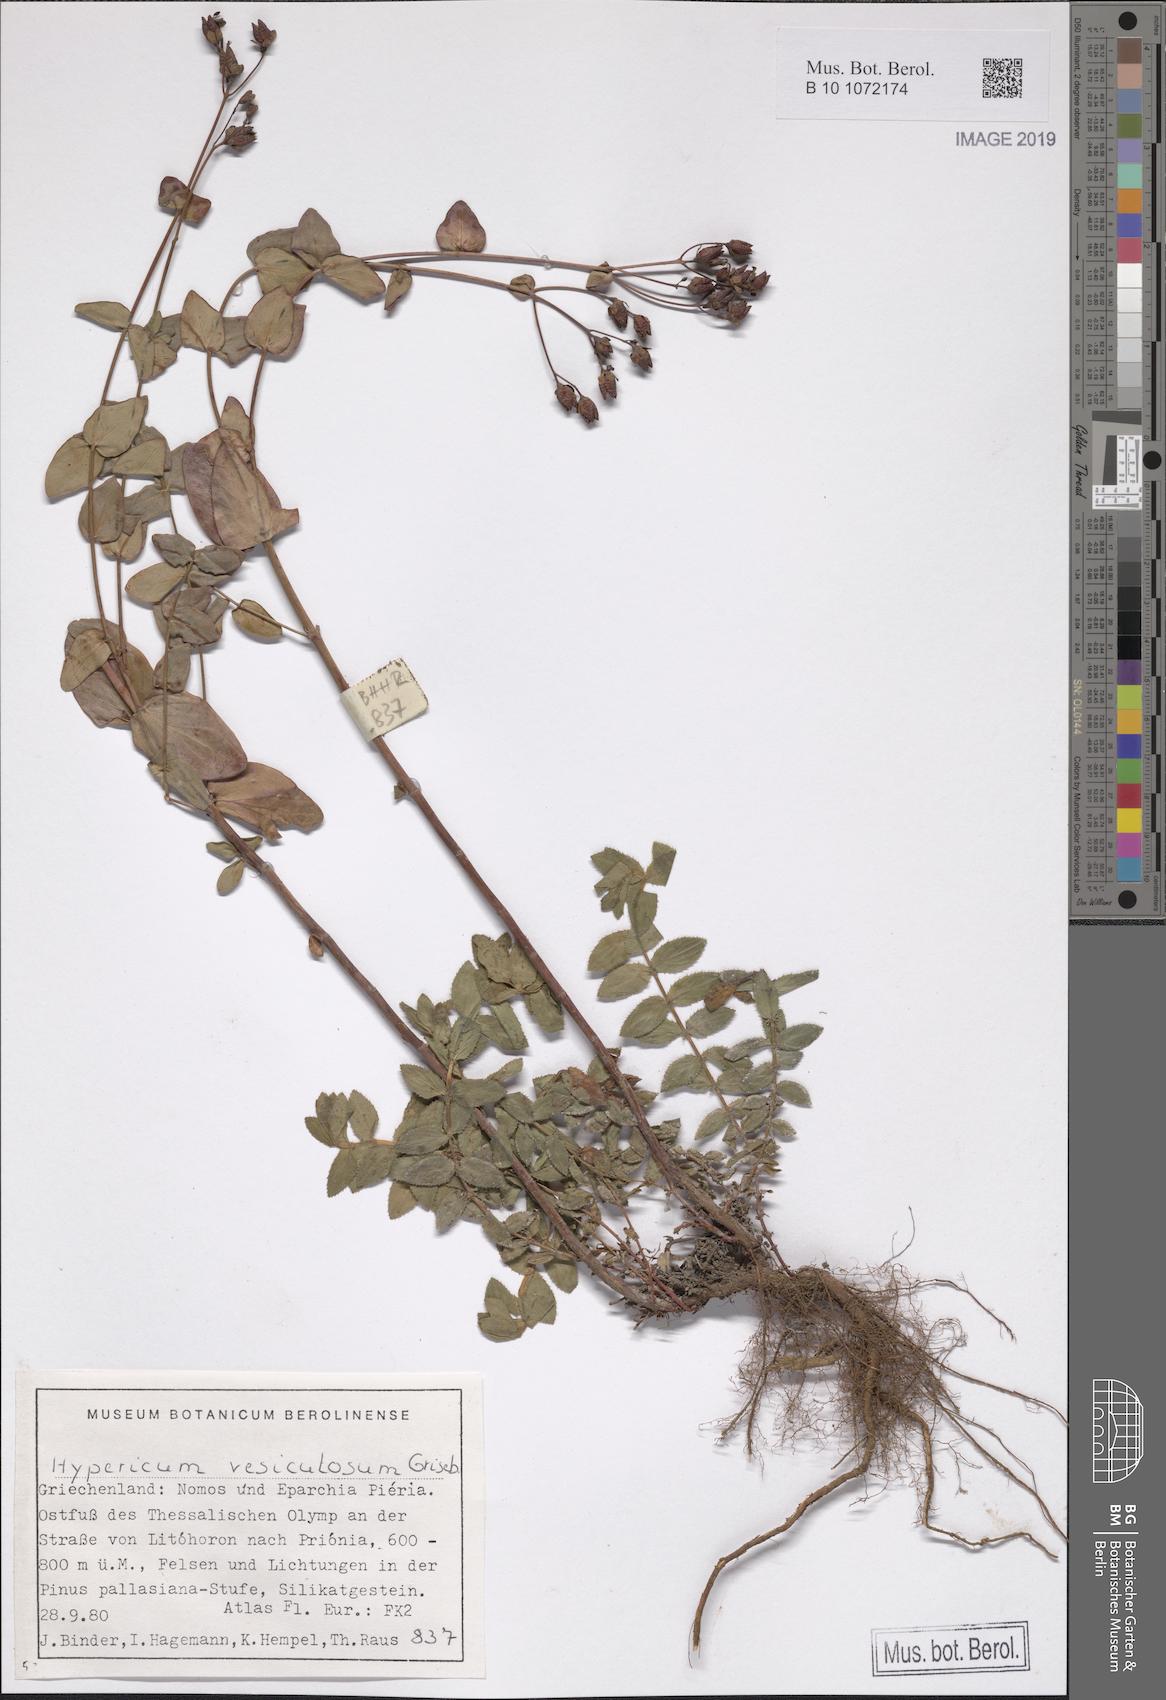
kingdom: Plantae
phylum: Tracheophyta
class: Magnoliopsida
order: Malpighiales
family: Hypericaceae
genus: Hypericum
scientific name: Hypericum vesiculosum
